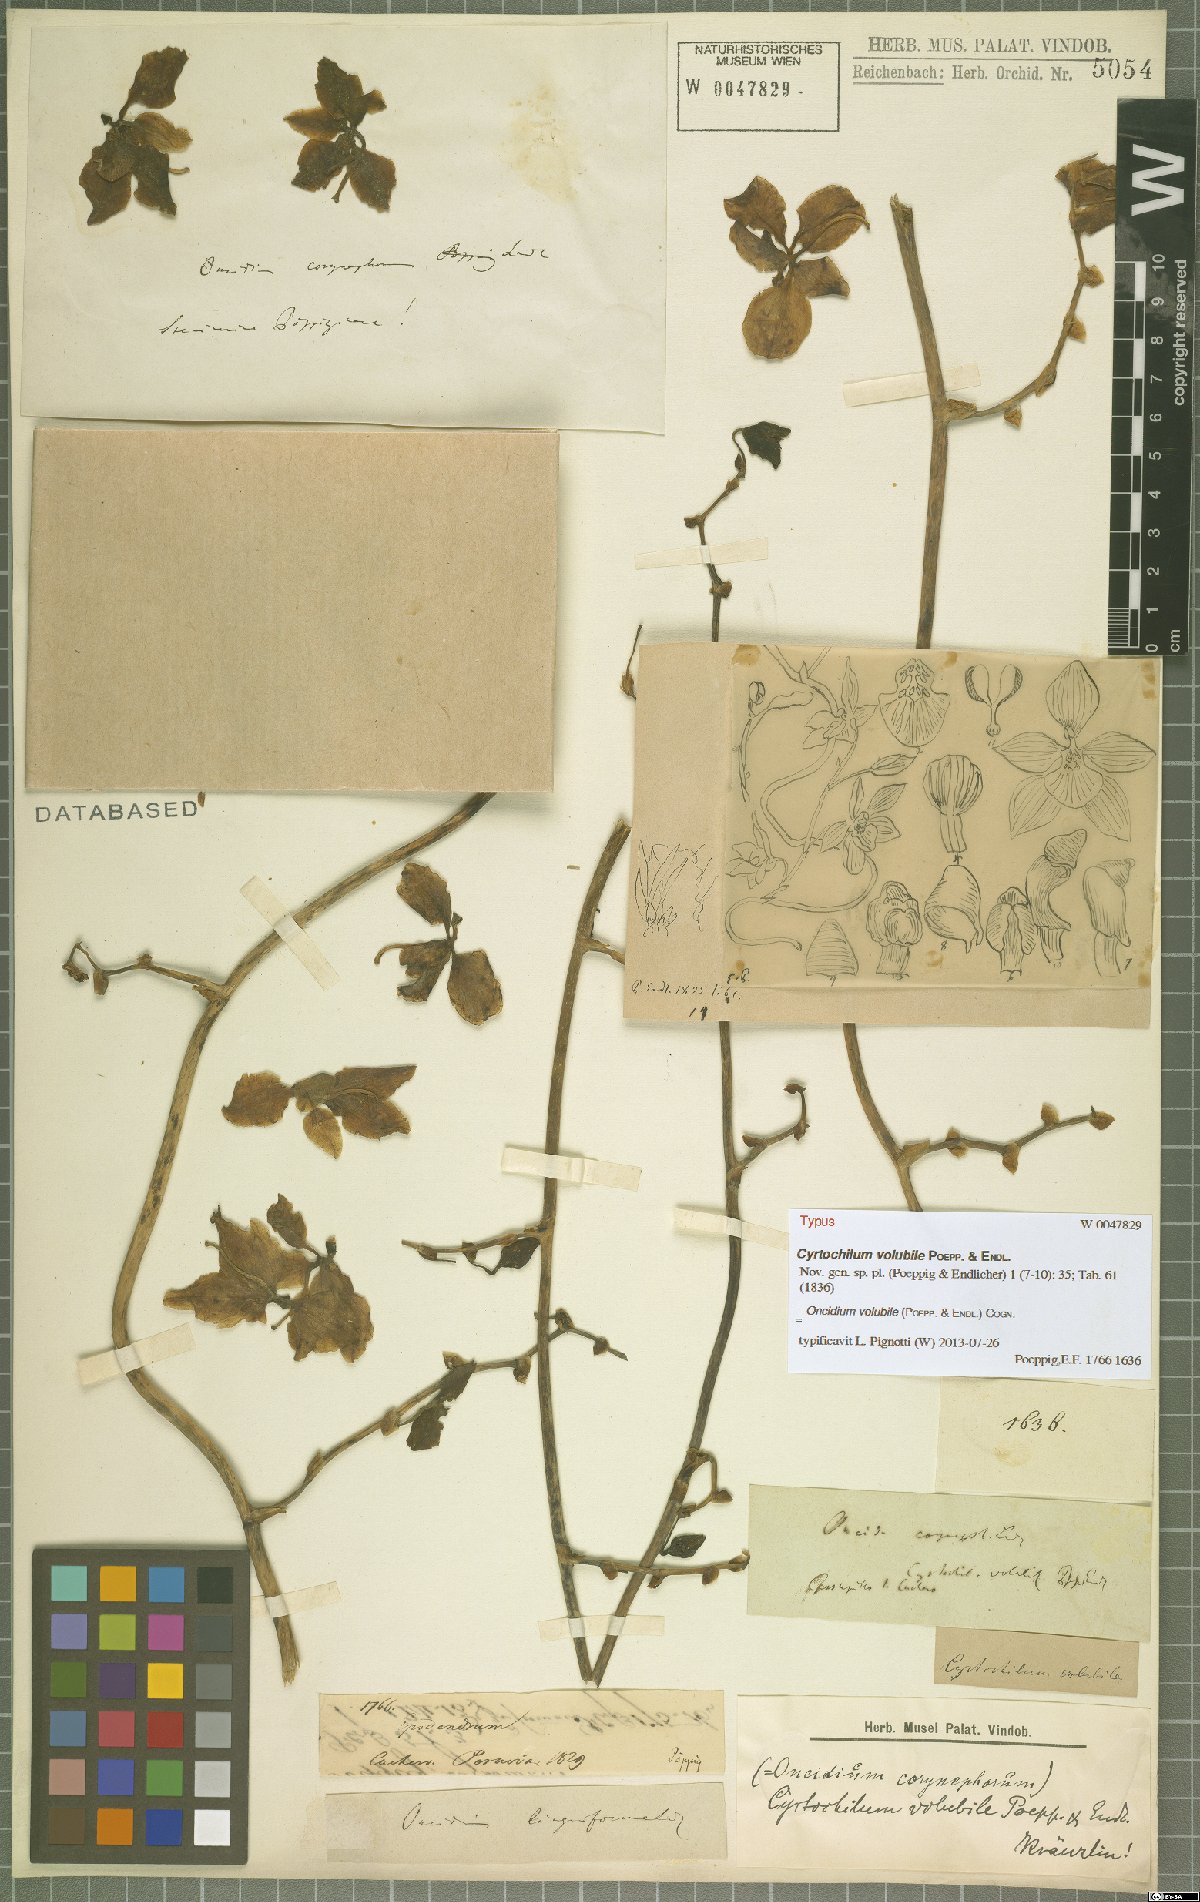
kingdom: Plantae
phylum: Tracheophyta
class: Liliopsida
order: Asparagales
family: Orchidaceae
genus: Cyrtochilum
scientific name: Cyrtochilum volubile
